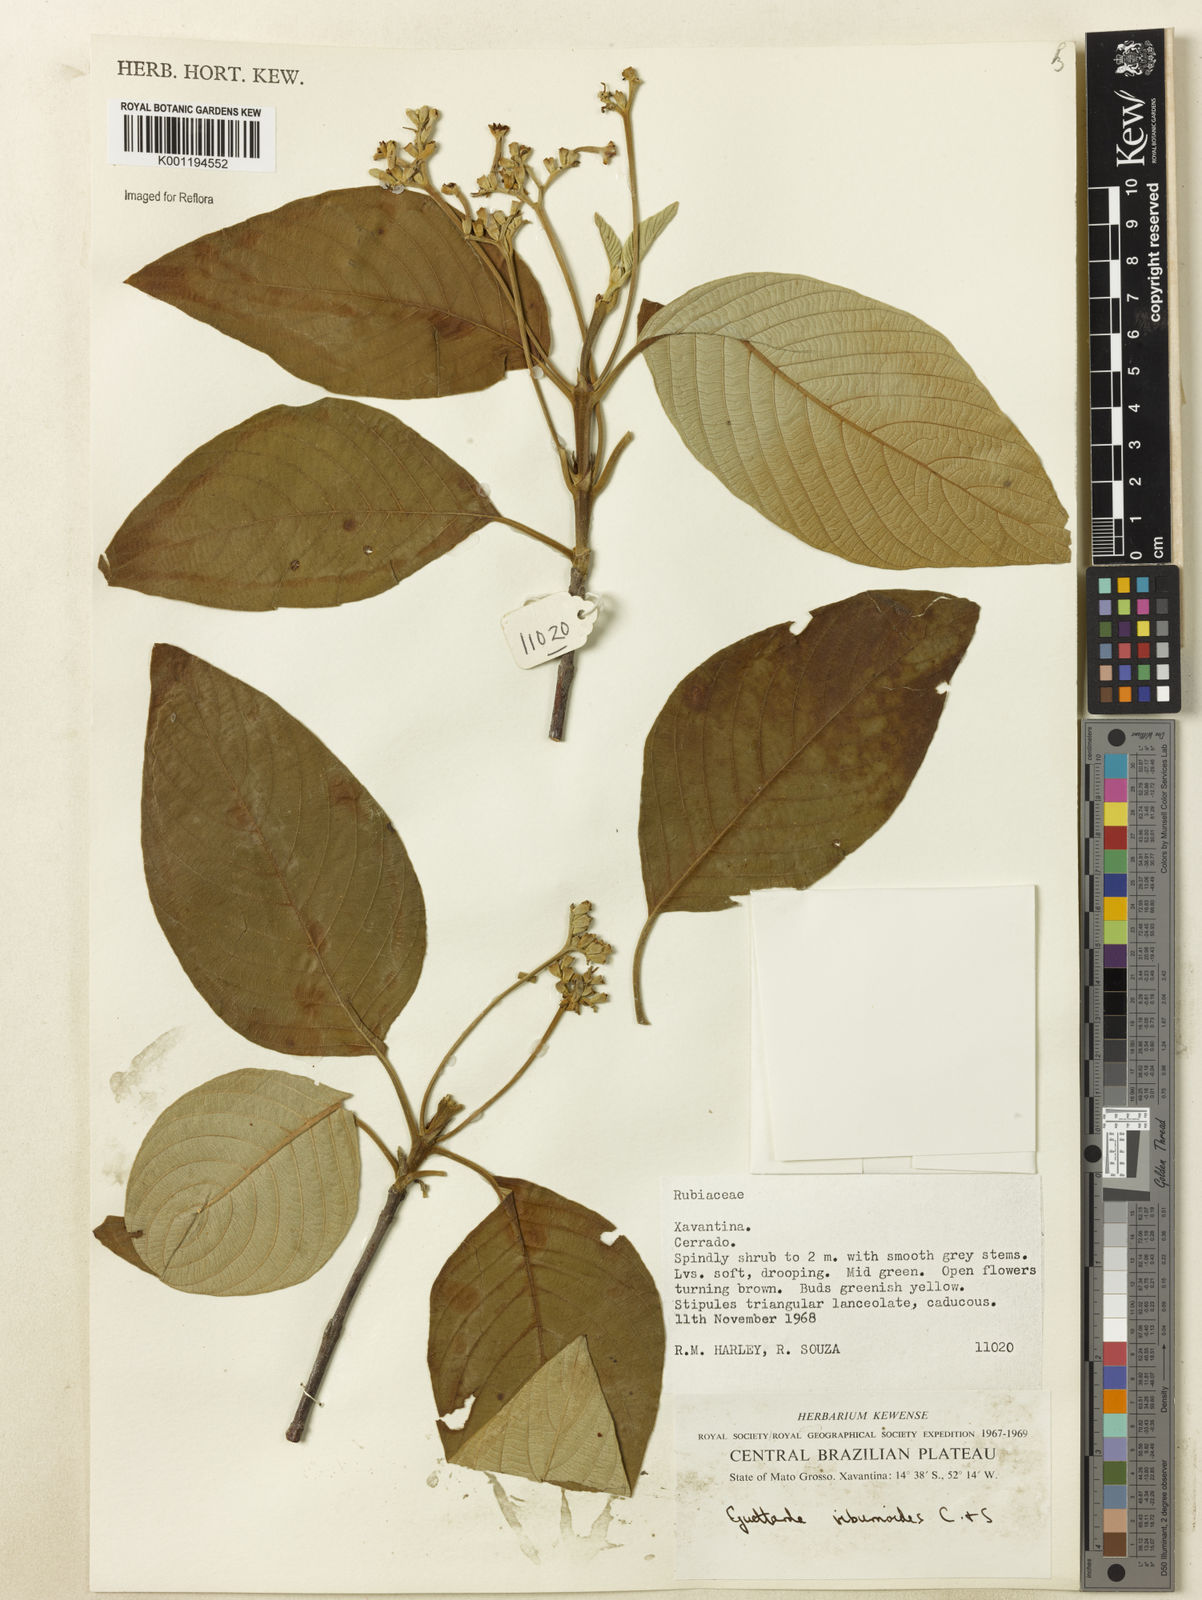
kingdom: Plantae
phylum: Tracheophyta
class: Magnoliopsida
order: Gentianales
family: Rubiaceae
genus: Guettarda
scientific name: Guettarda viburnoides
